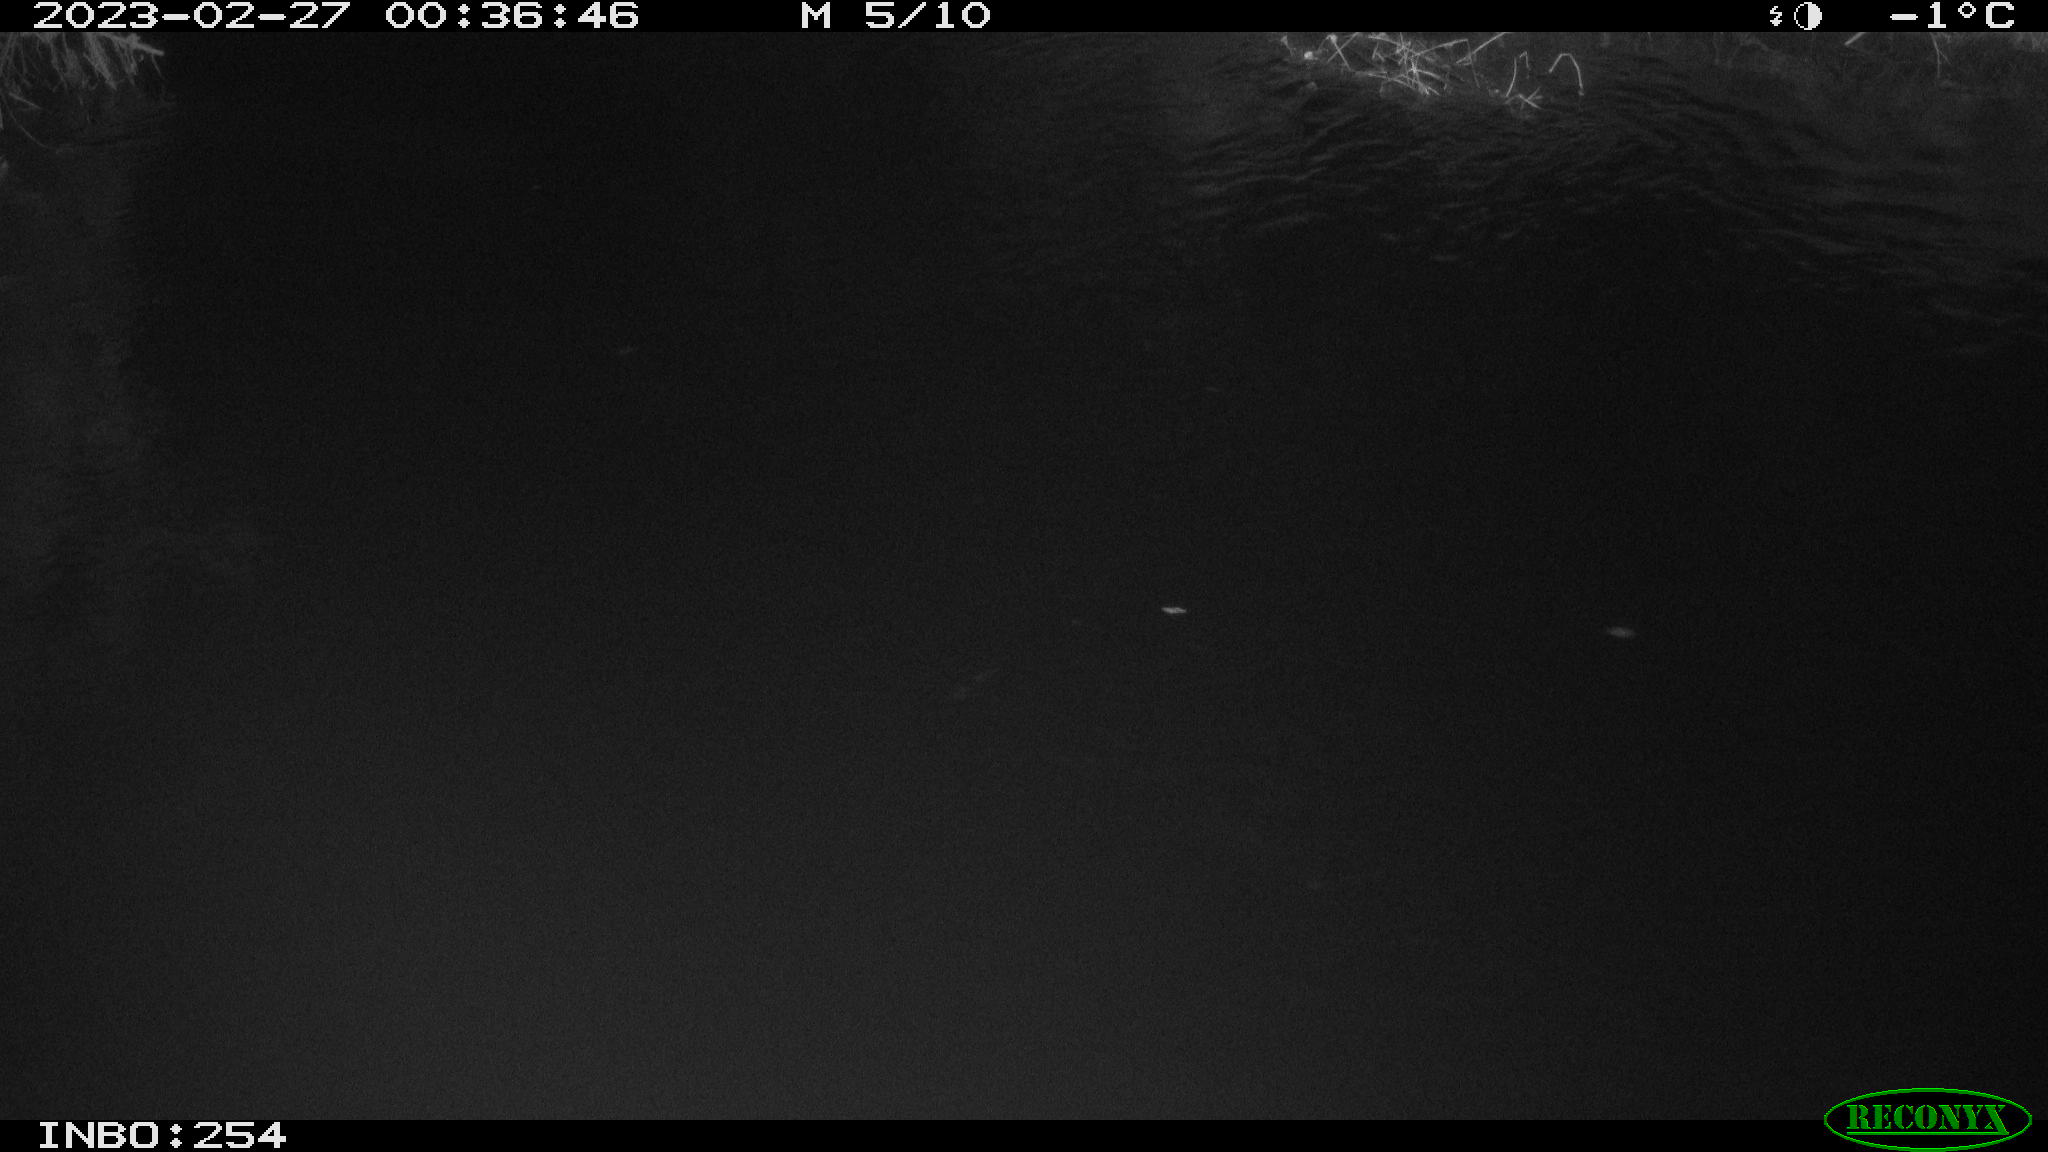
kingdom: Animalia
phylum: Chordata
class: Aves
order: Anseriformes
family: Anatidae
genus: Anas
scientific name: Anas
